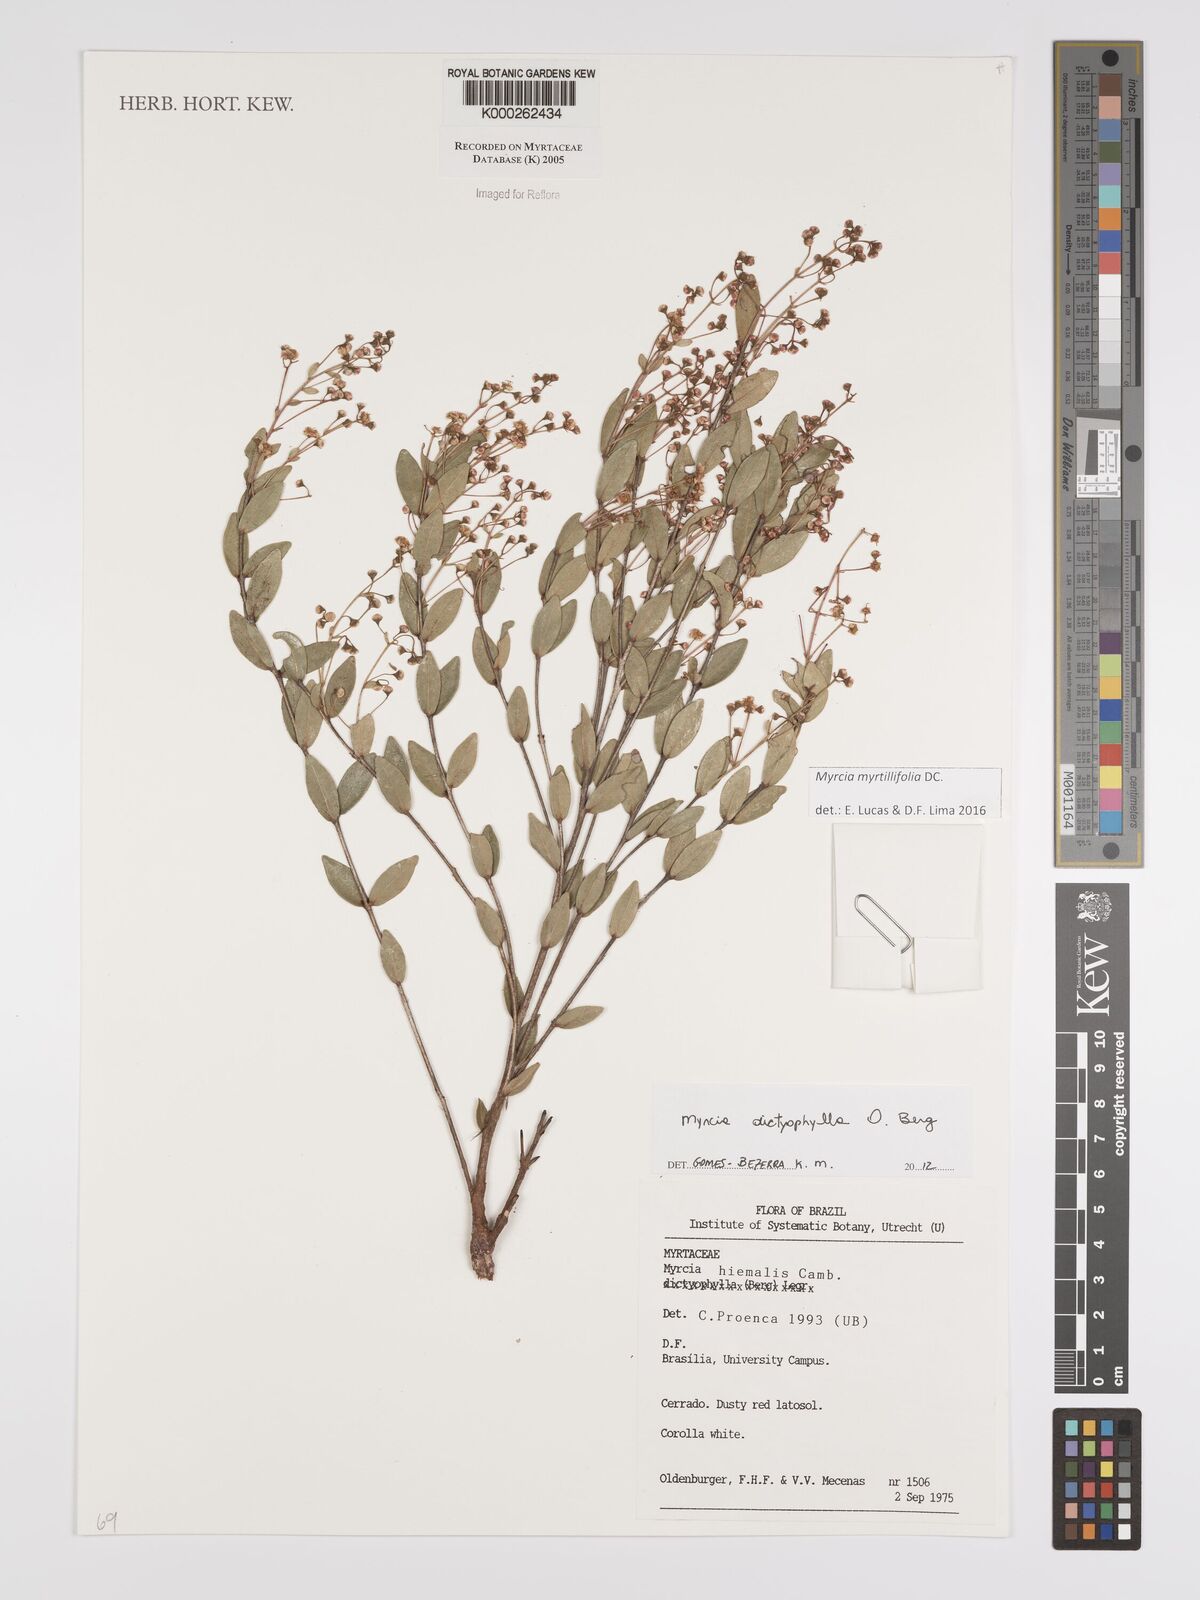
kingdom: Plantae
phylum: Tracheophyta
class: Magnoliopsida
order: Myrtales
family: Myrtaceae
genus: Myrcia
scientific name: Myrcia hiemalis
